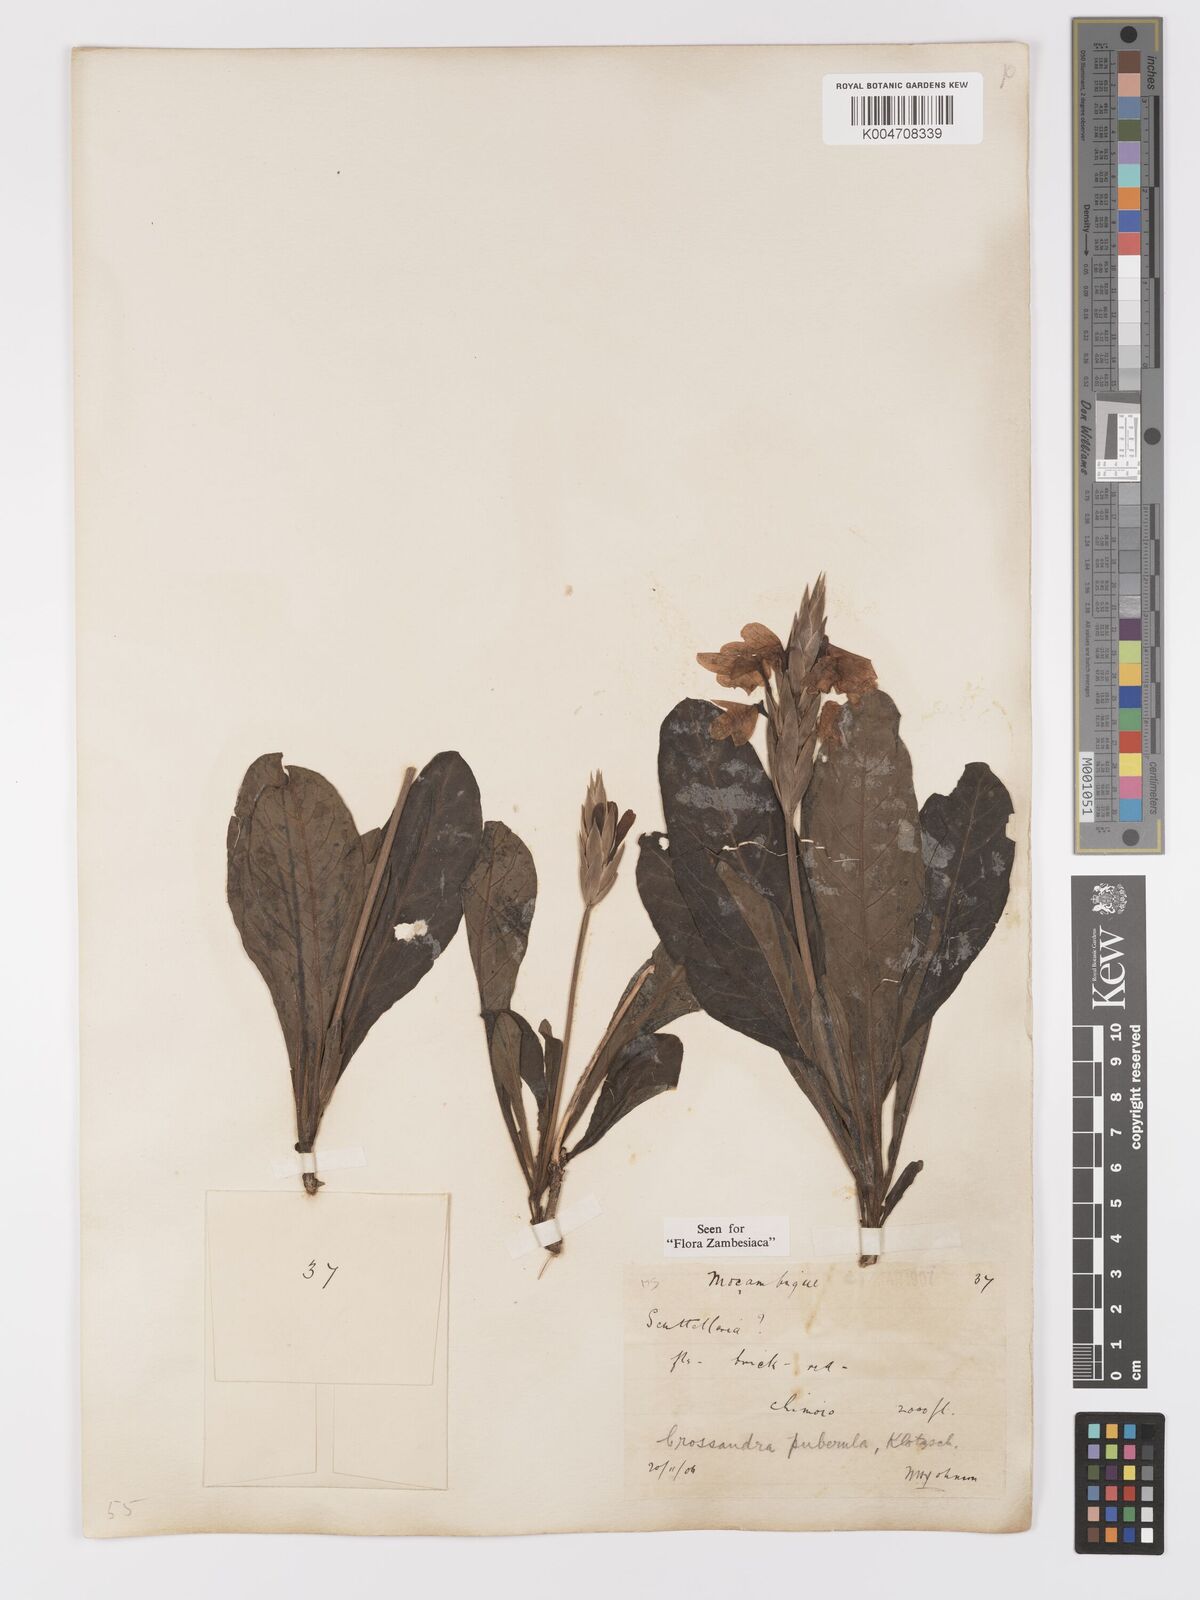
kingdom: Plantae
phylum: Tracheophyta
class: Magnoliopsida
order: Lamiales
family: Acanthaceae
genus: Crossandra
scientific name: Crossandra puberula
